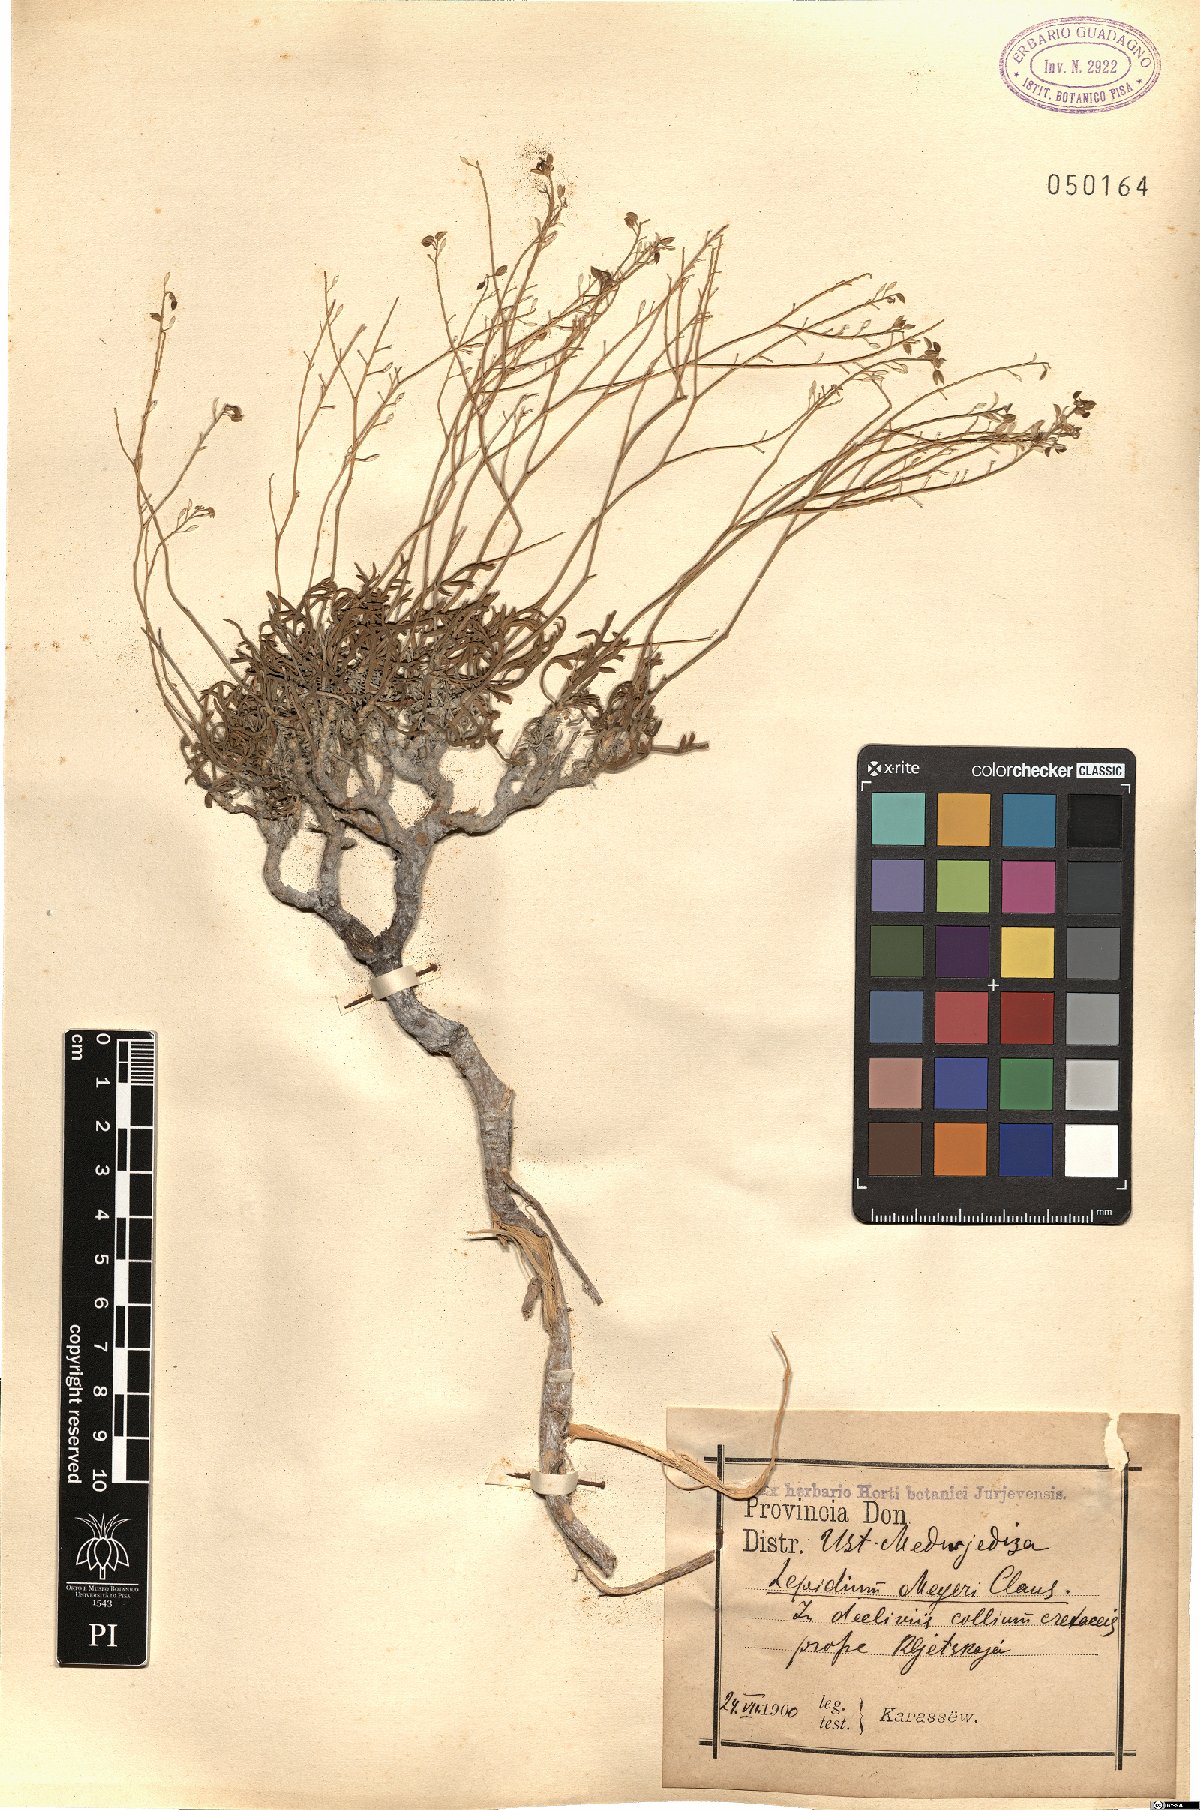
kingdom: Plantae
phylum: Tracheophyta
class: Magnoliopsida
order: Brassicales
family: Brassicaceae
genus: Lepidium
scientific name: Lepidium meyeri
